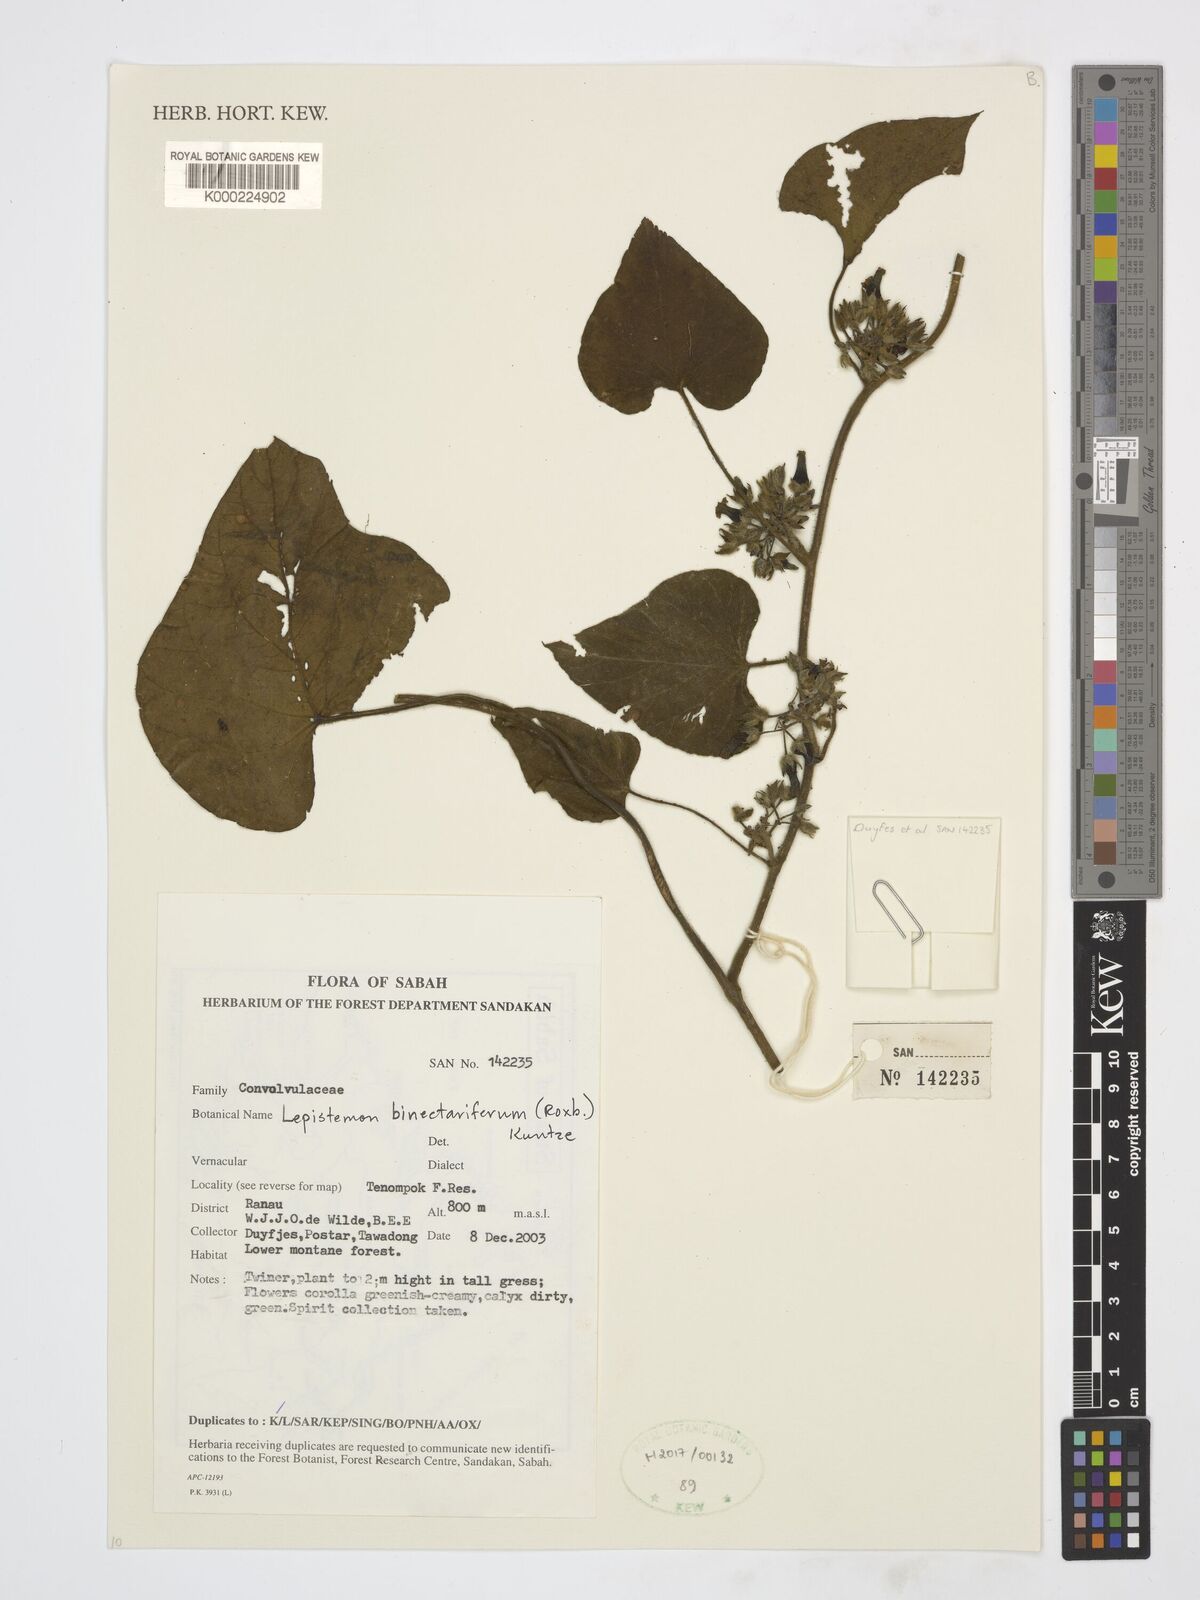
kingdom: Plantae
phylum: Tracheophyta
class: Magnoliopsida
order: Solanales
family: Convolvulaceae
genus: Lepistemon
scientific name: Lepistemon
